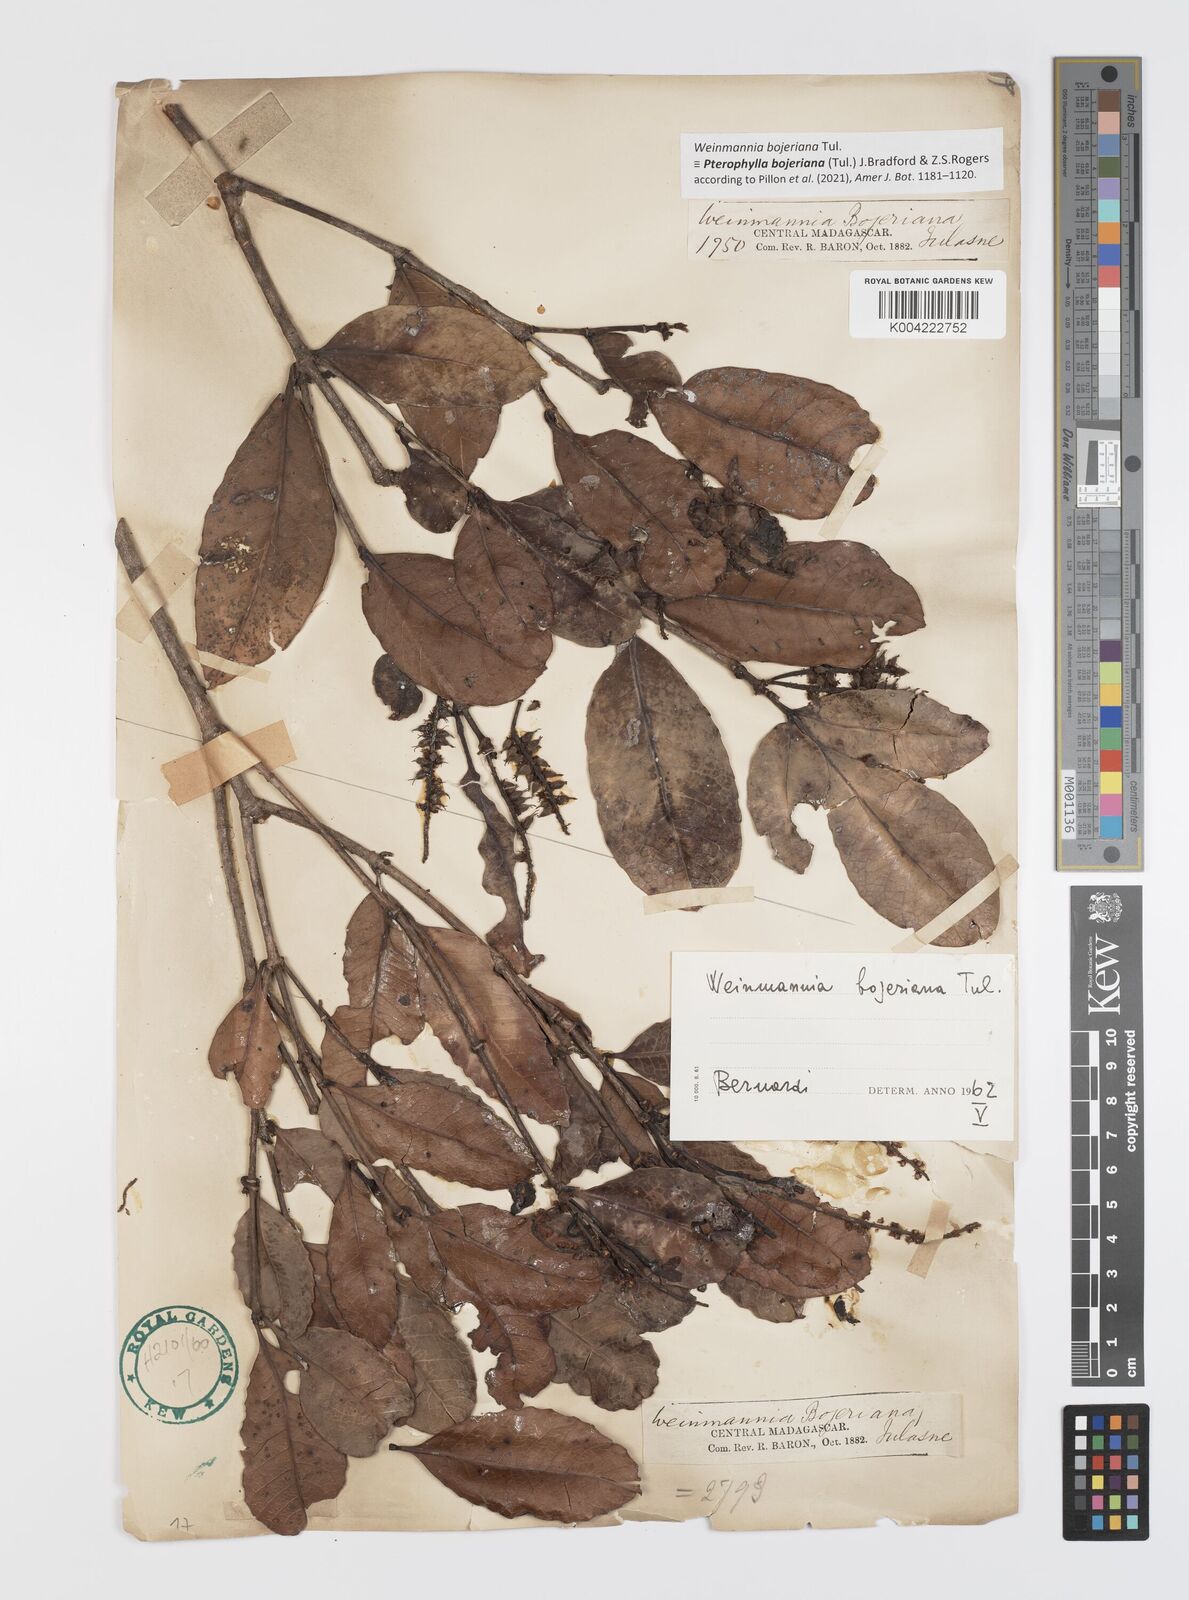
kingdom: Plantae
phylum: Tracheophyta
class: Magnoliopsida
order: Oxalidales
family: Cunoniaceae
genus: Pterophylla
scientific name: Pterophylla bojeriana
